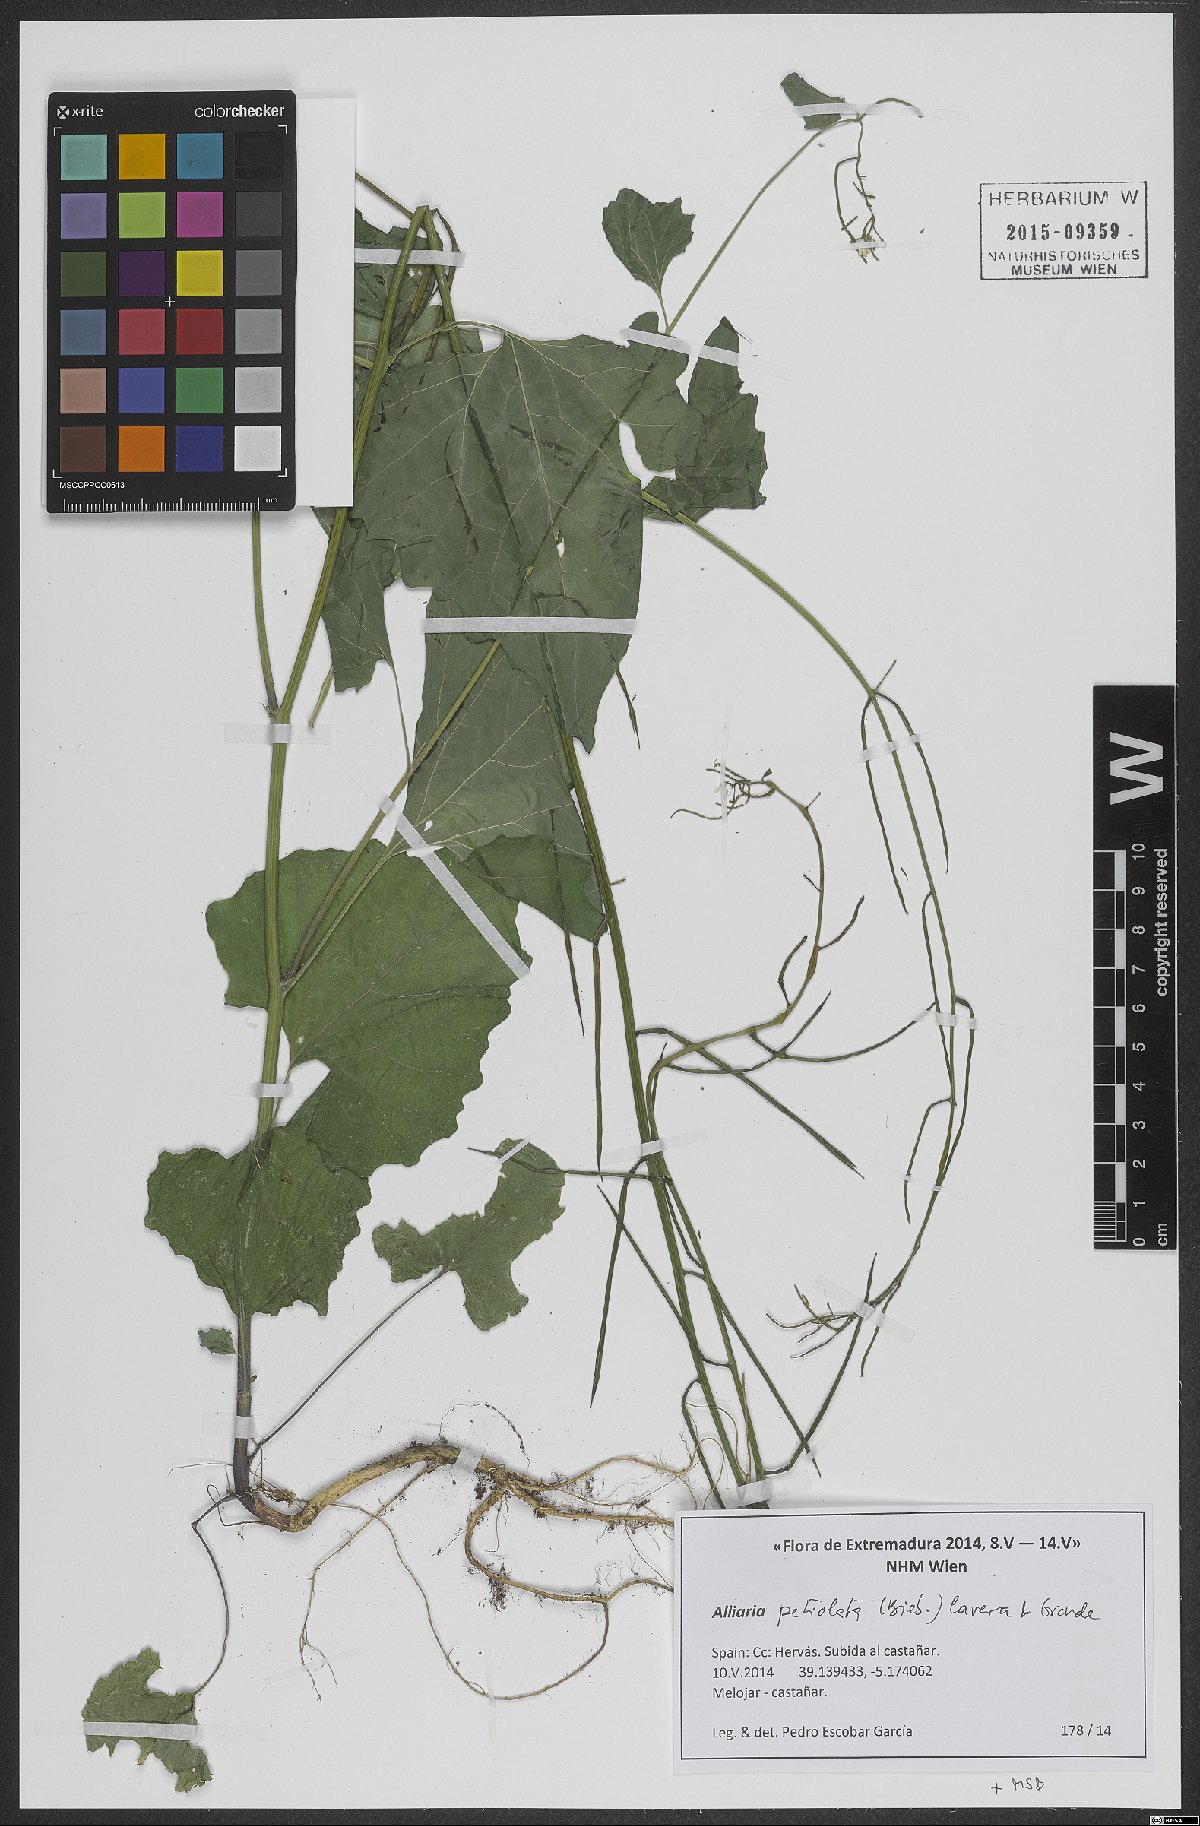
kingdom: Plantae
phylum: Tracheophyta
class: Magnoliopsida
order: Brassicales
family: Brassicaceae
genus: Alliaria
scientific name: Alliaria petiolata
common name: Garlic mustard
